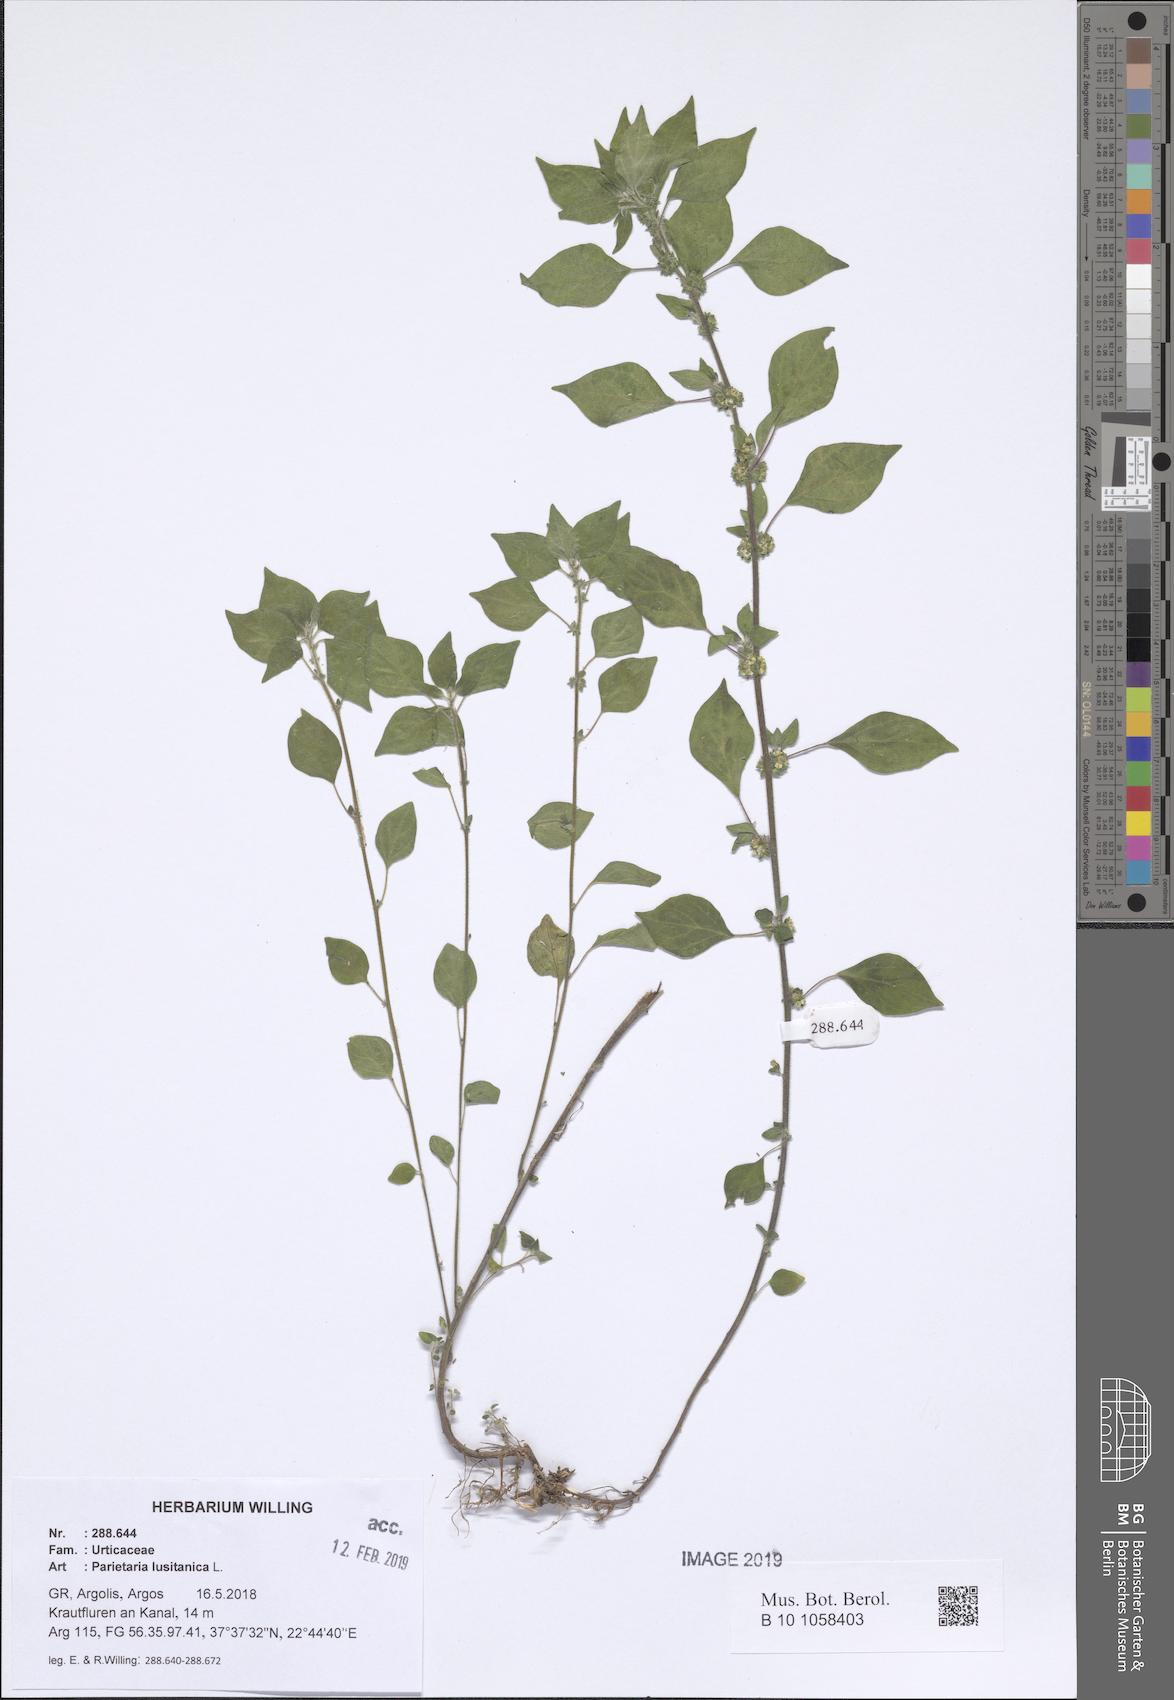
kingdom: Plantae
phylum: Tracheophyta
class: Magnoliopsida
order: Rosales
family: Urticaceae
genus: Parietaria
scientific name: Parietaria lusitanica
